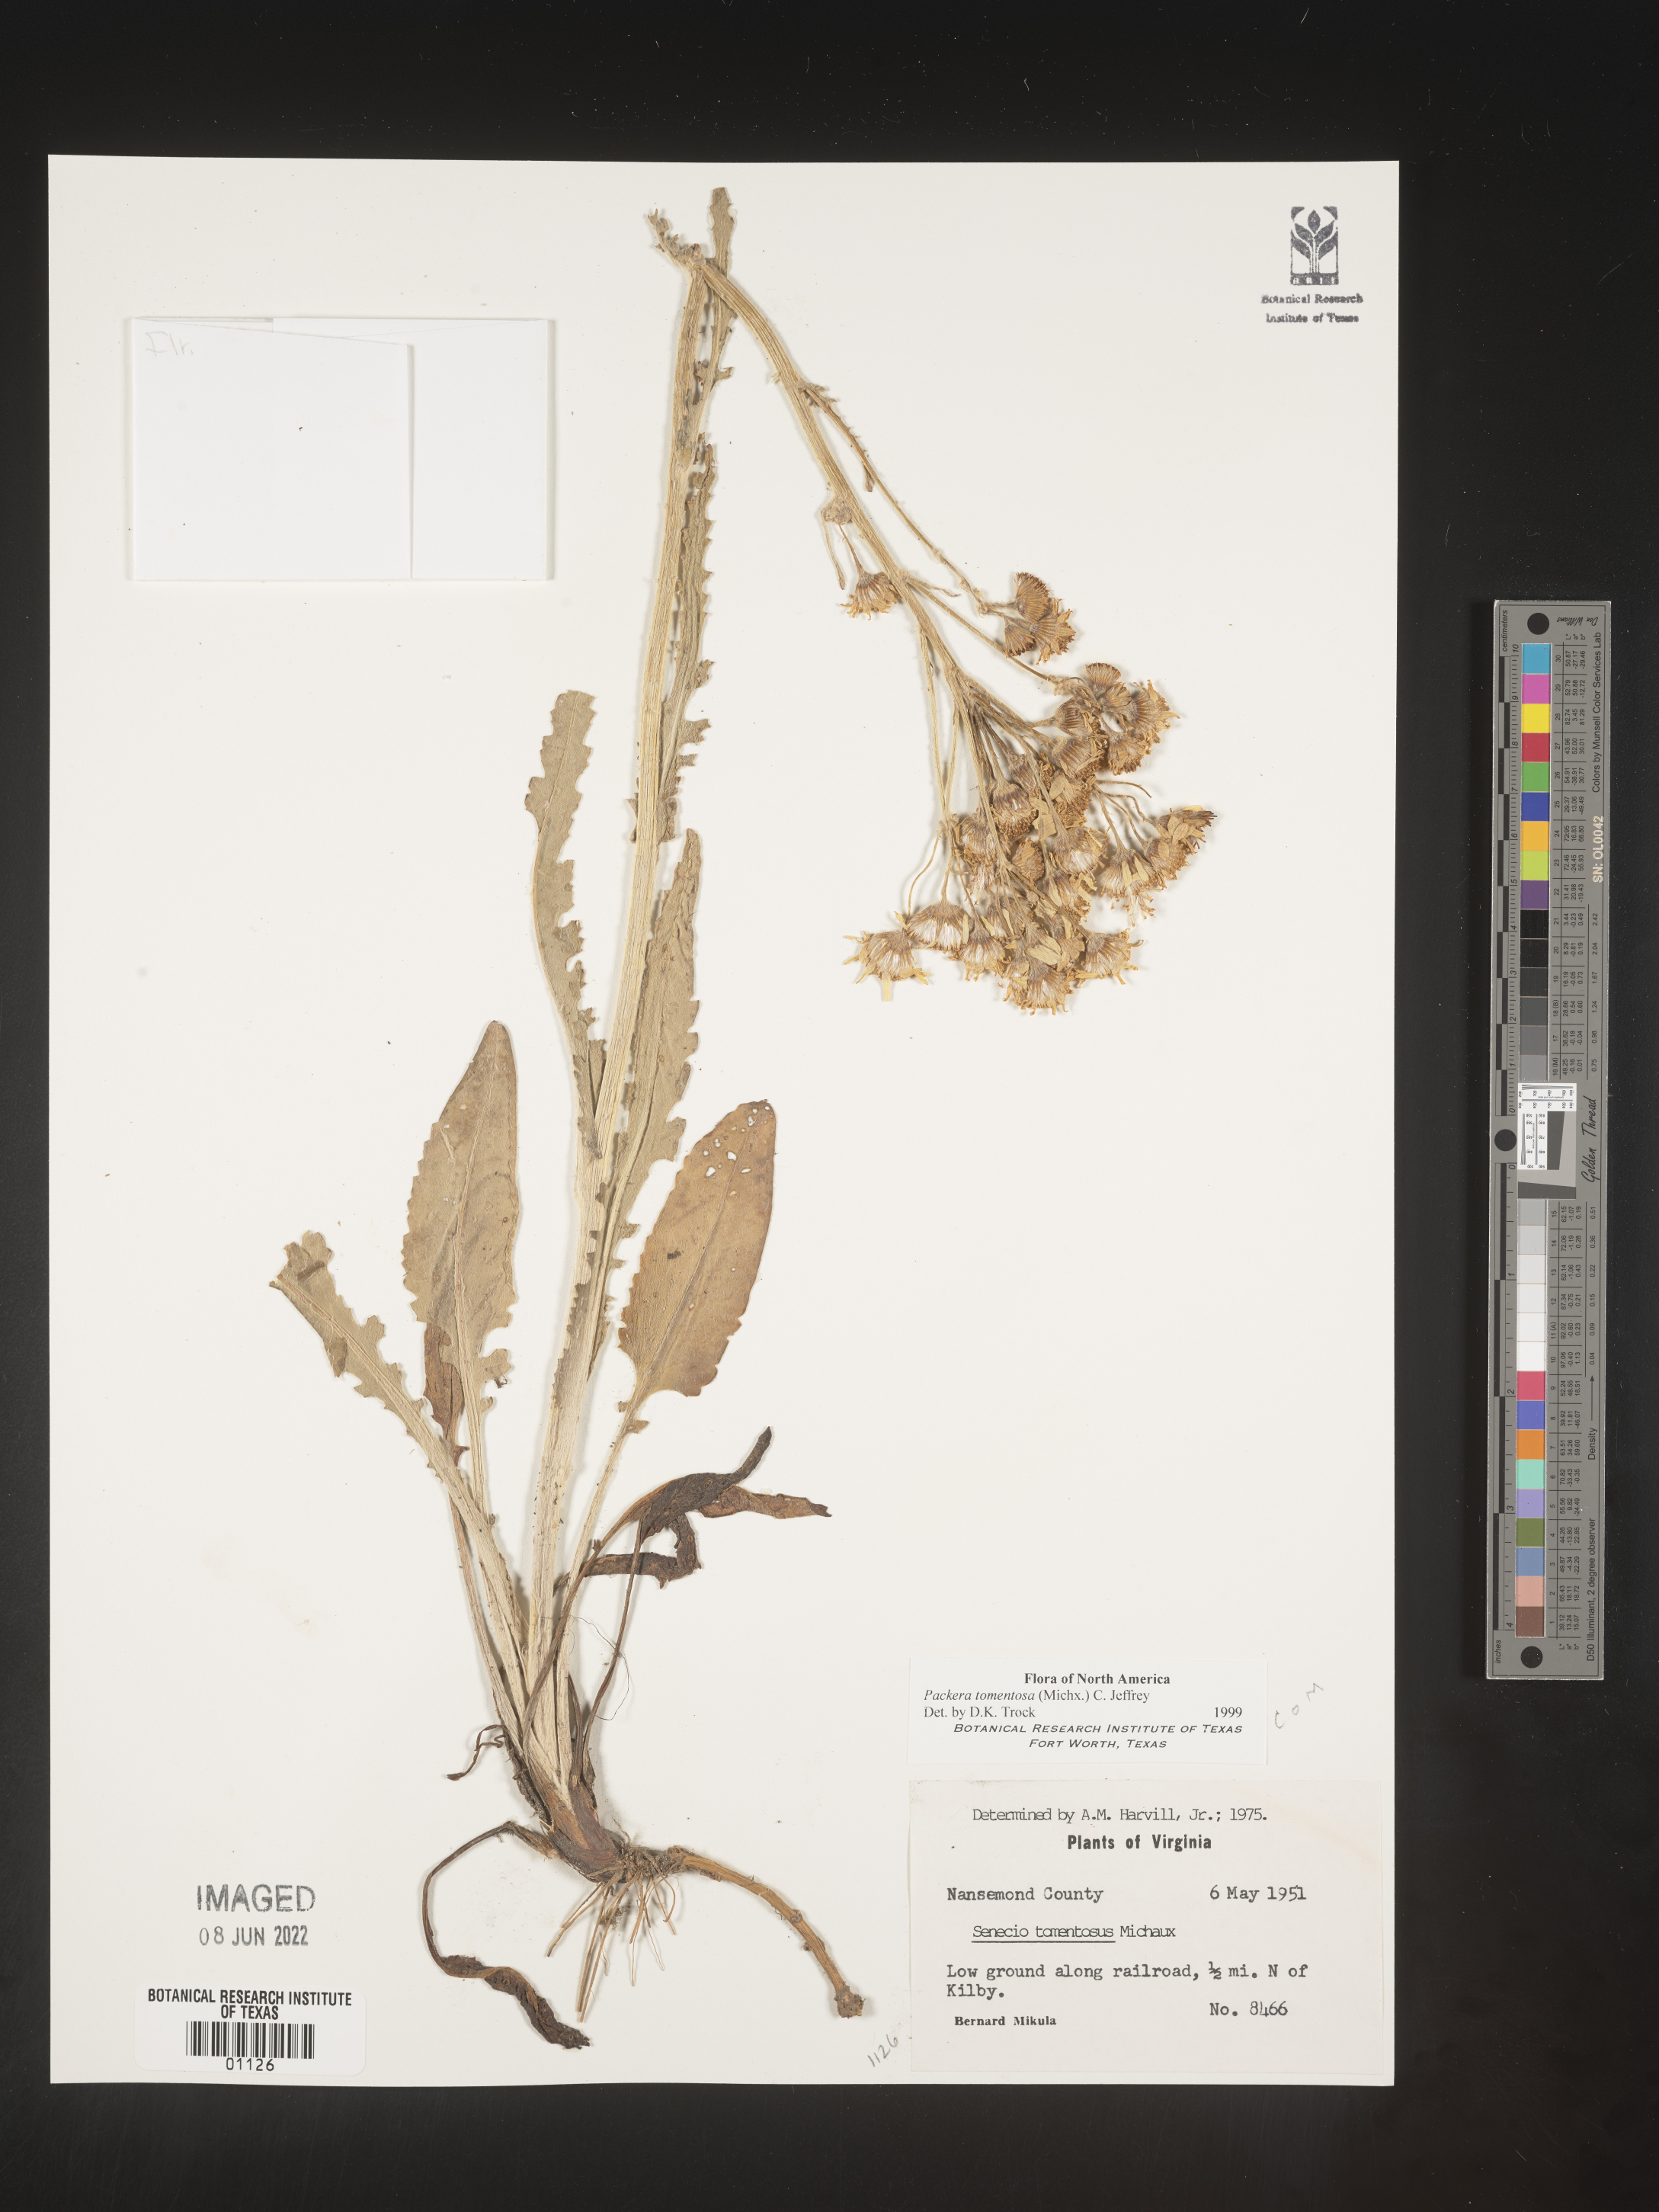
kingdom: Plantae
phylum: Tracheophyta
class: Magnoliopsida
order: Asterales
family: Asteraceae
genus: Packera
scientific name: Packera dubia
